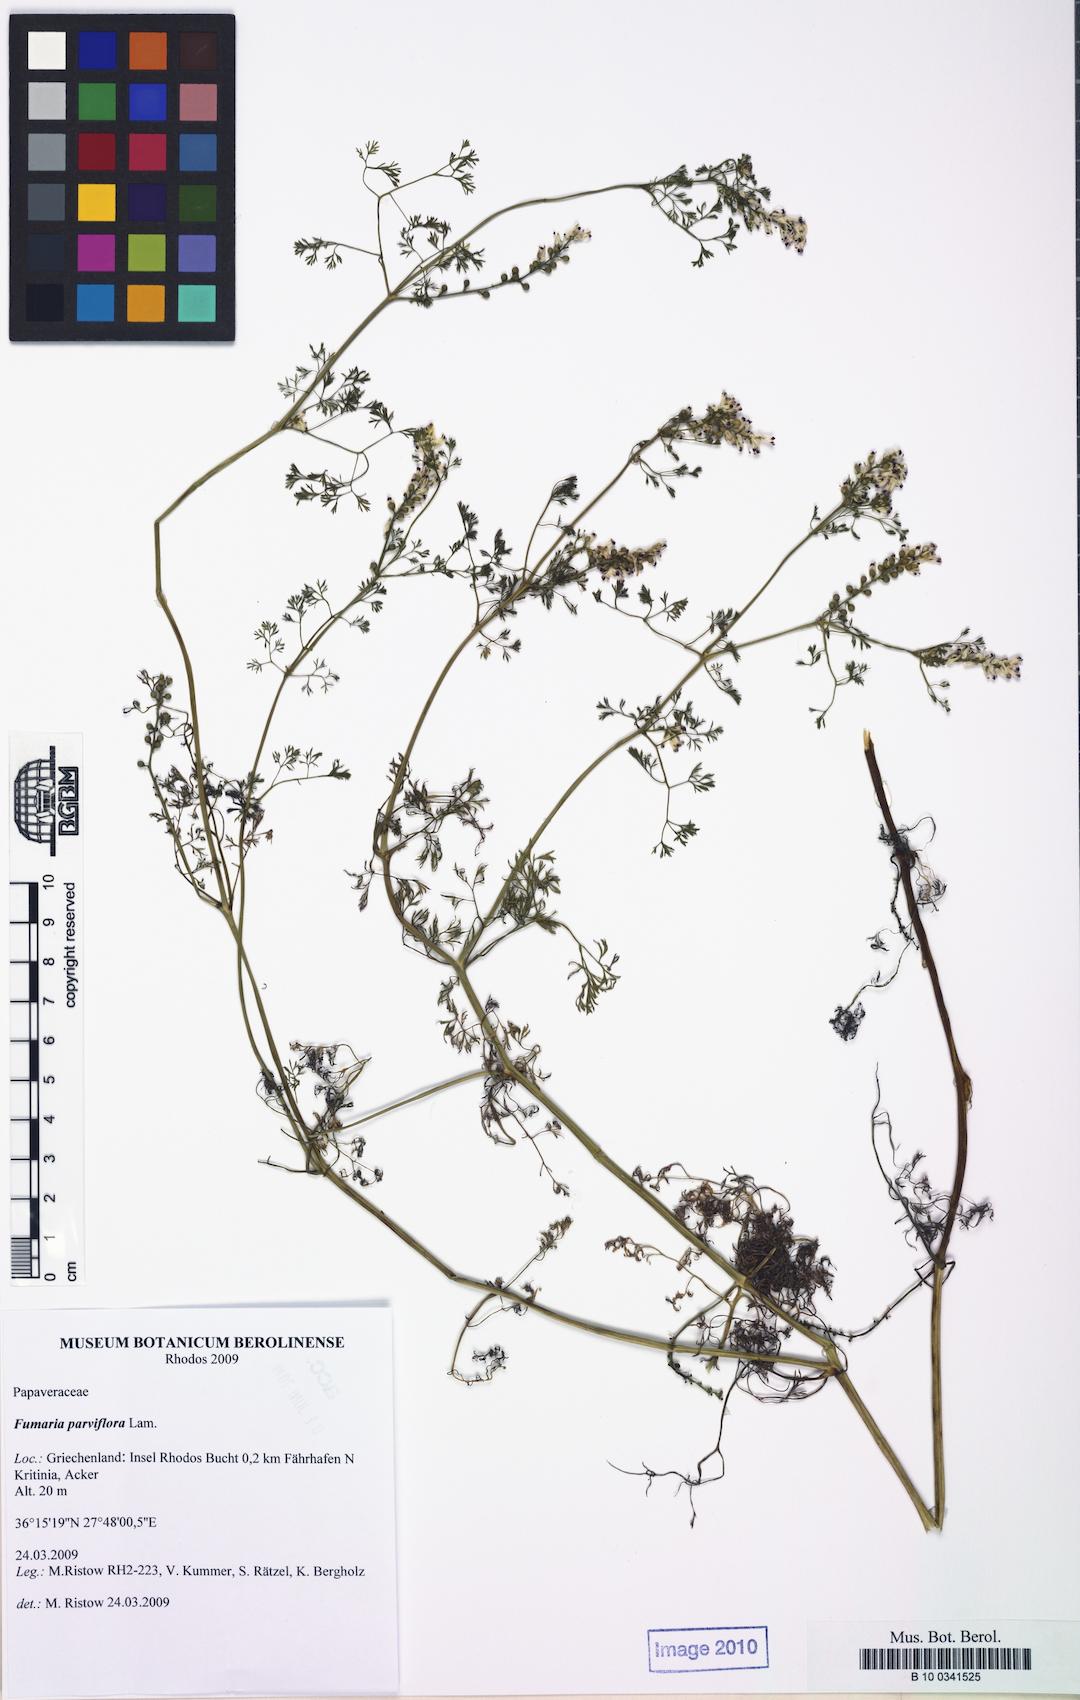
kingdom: Plantae
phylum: Tracheophyta
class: Magnoliopsida
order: Ranunculales
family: Papaveraceae
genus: Fumaria
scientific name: Fumaria parviflora
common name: Fine-leaved fumitory
